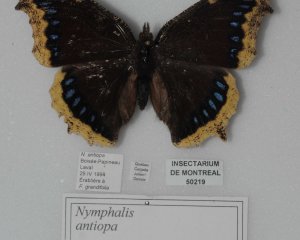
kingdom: Animalia
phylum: Arthropoda
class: Insecta
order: Lepidoptera
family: Nymphalidae
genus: Nymphalis
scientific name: Nymphalis antiopa
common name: Mourning Cloak
